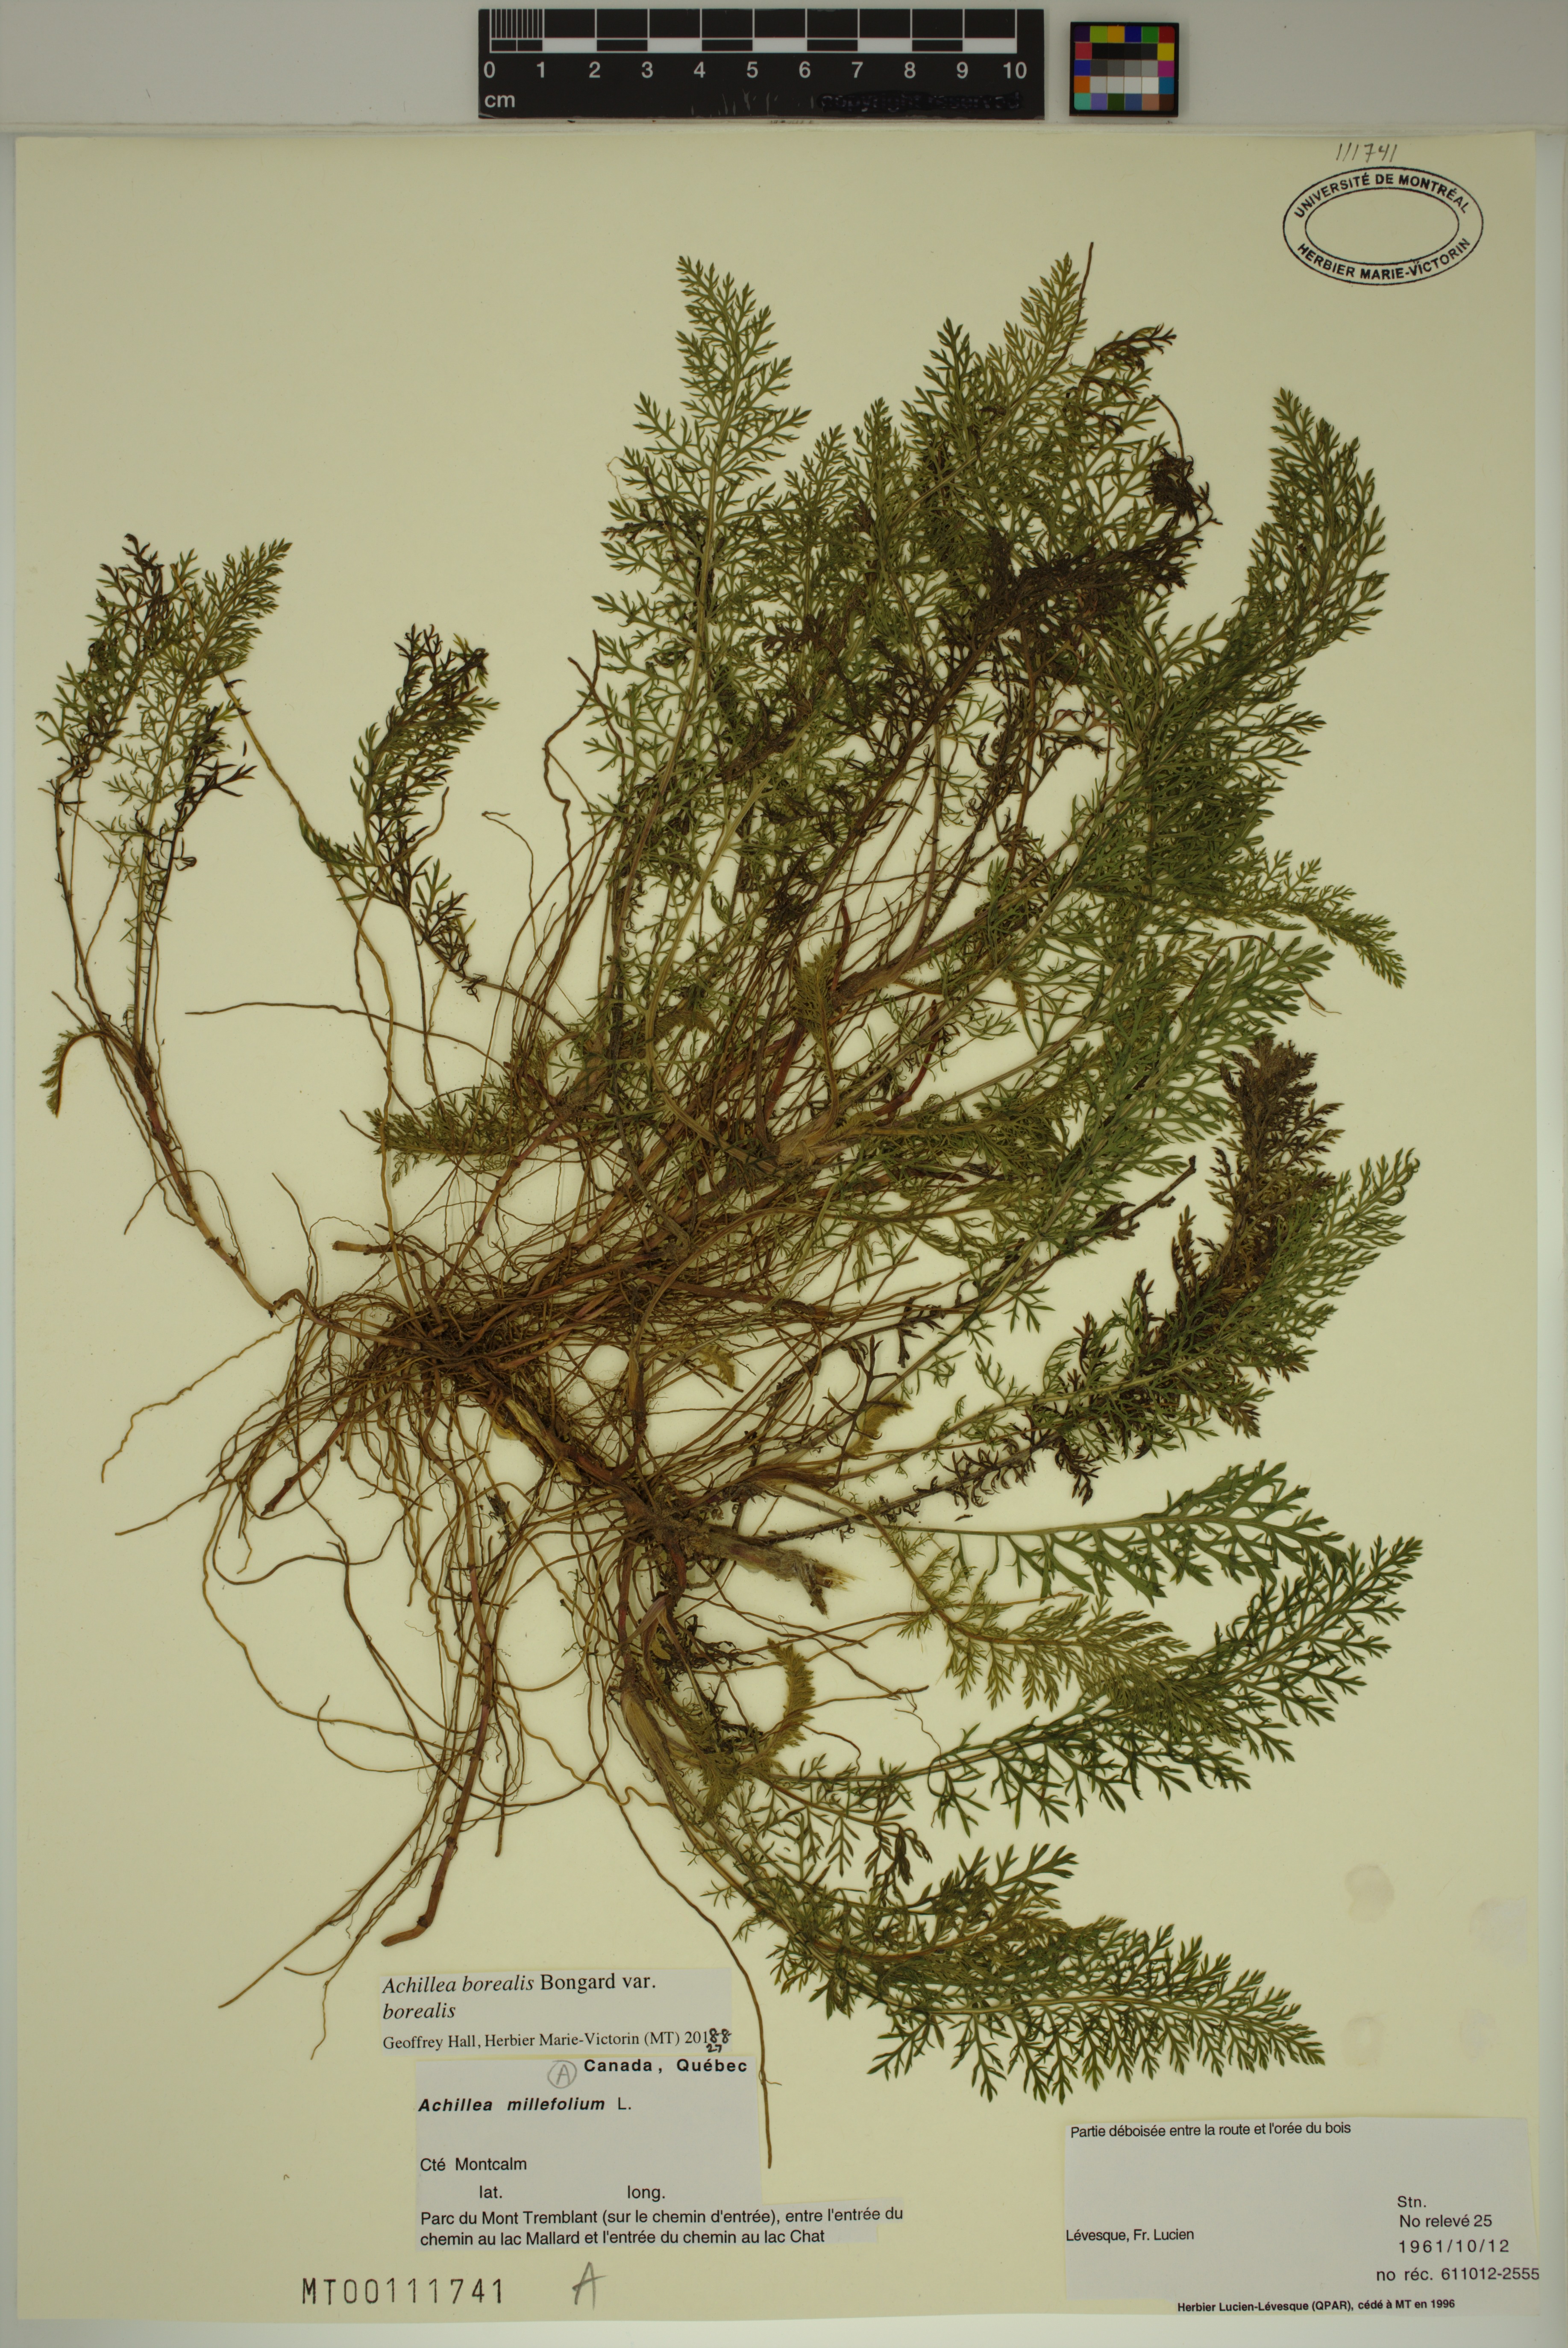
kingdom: Plantae
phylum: Tracheophyta
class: Magnoliopsida
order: Asterales
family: Asteraceae
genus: Achillea
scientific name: Achillea millefolium
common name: Yarrow
